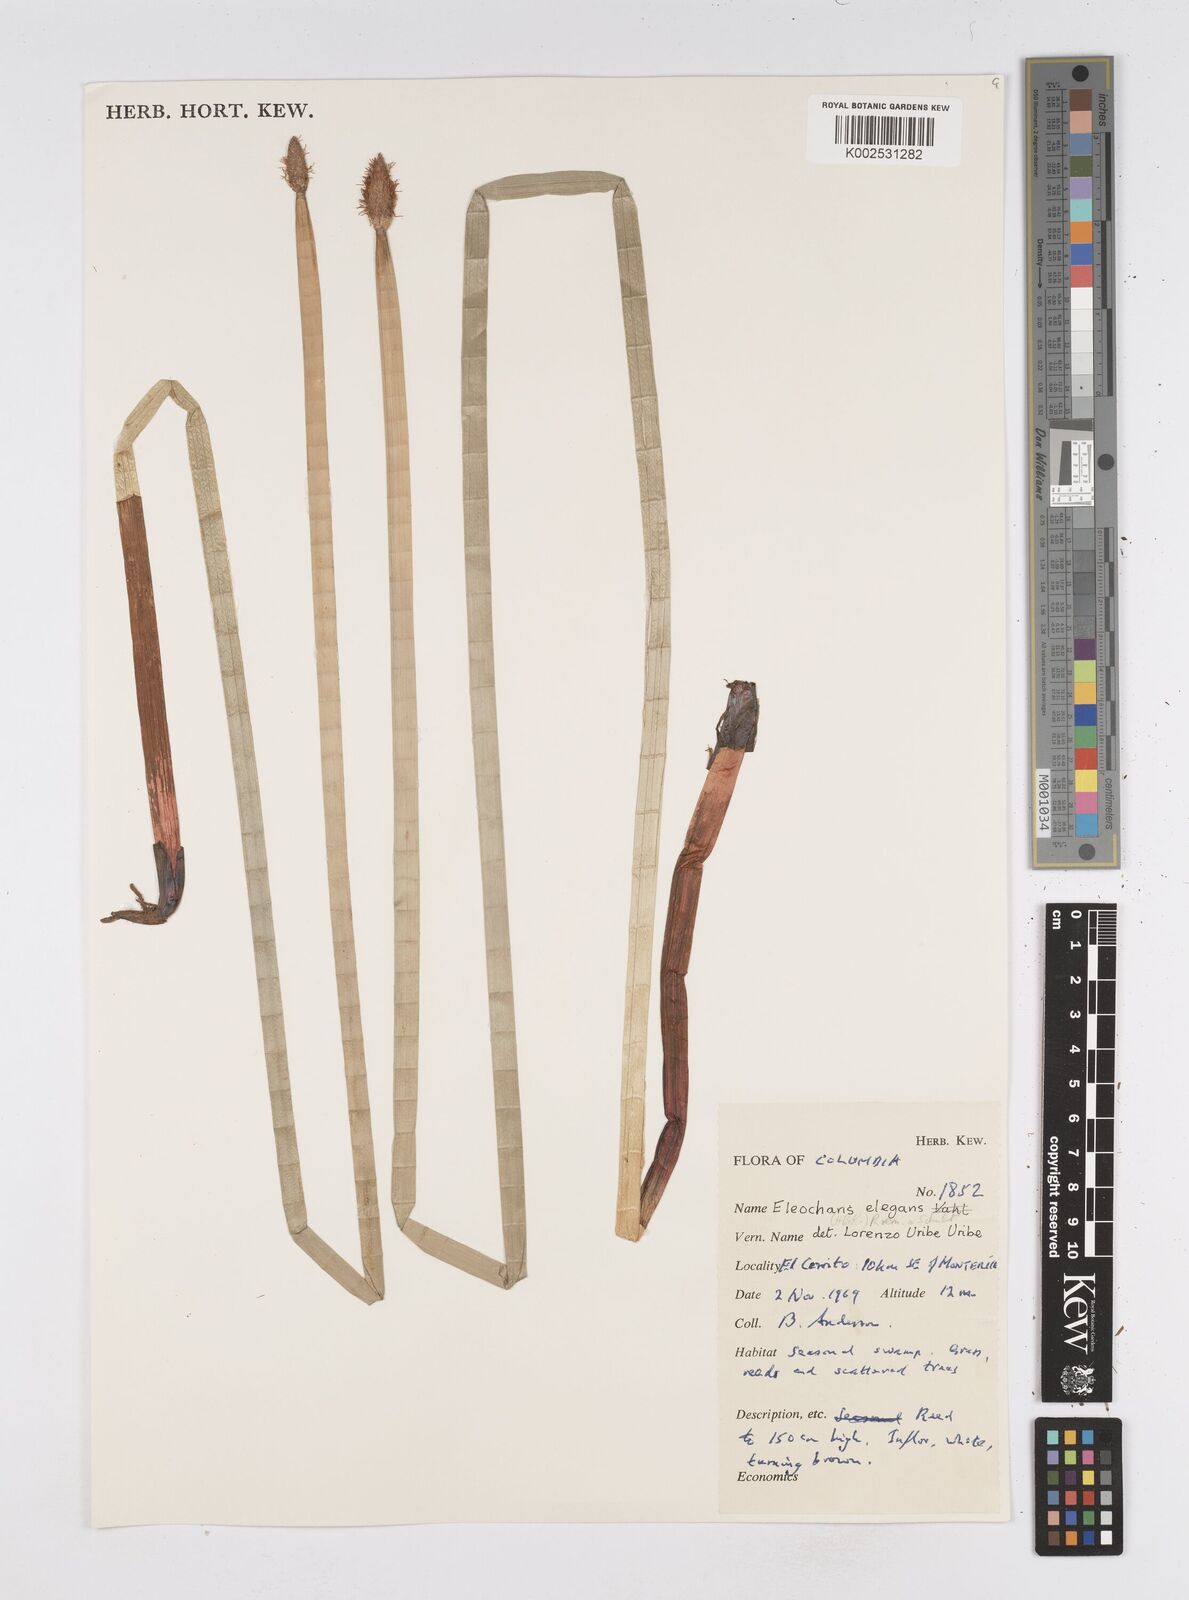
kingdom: Plantae
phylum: Tracheophyta
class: Liliopsida
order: Poales
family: Cyperaceae
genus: Eleocharis
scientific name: Eleocharis elegans
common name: Elegant spike-rush
